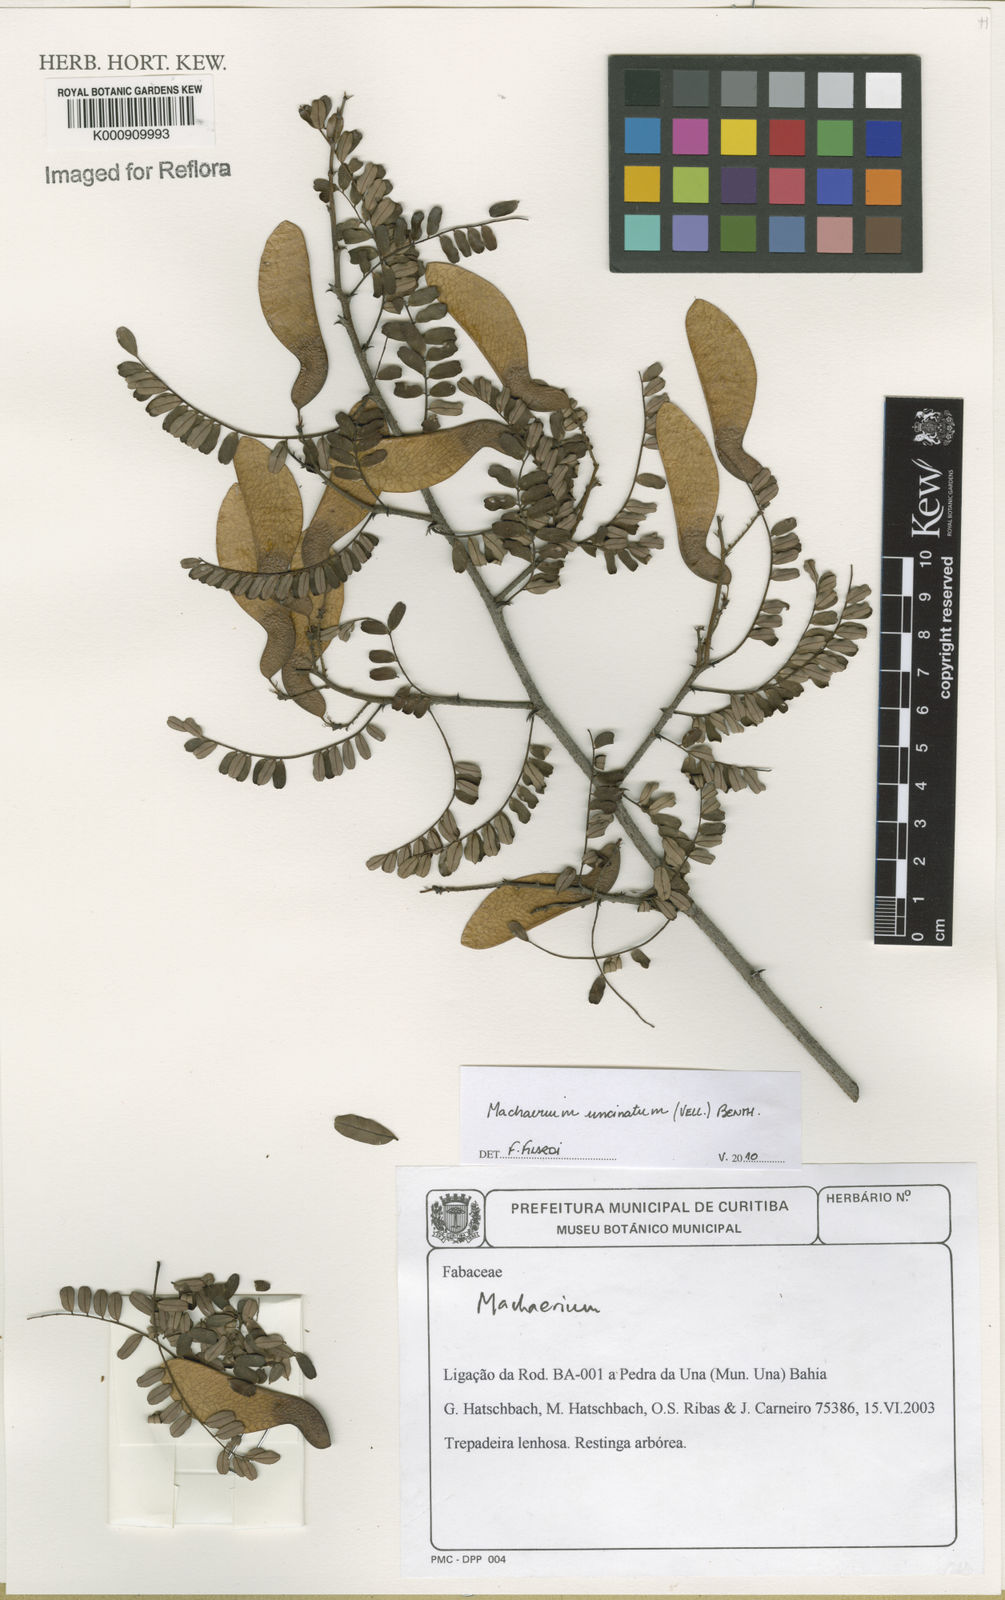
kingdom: Plantae
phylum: Tracheophyta
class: Magnoliopsida
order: Fabales
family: Fabaceae
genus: Machaerium
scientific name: Machaerium uncinatum
